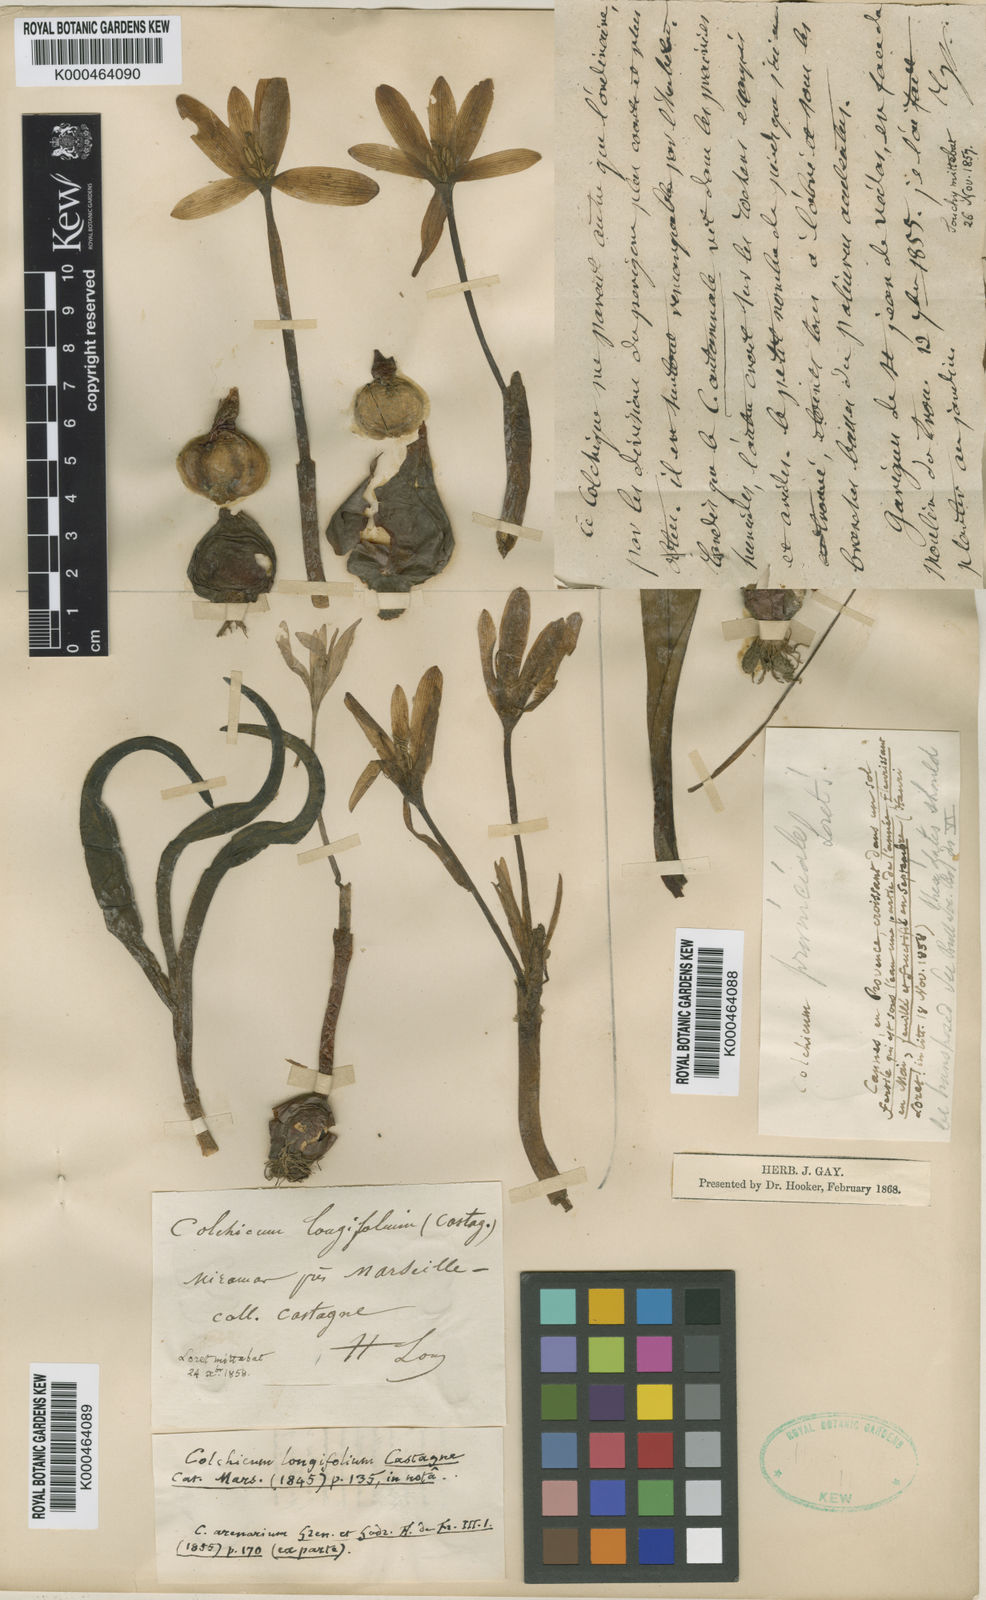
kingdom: Plantae
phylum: Tracheophyta
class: Liliopsida
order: Liliales
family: Colchicaceae
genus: Colchicum
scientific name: Colchicum longifolium
